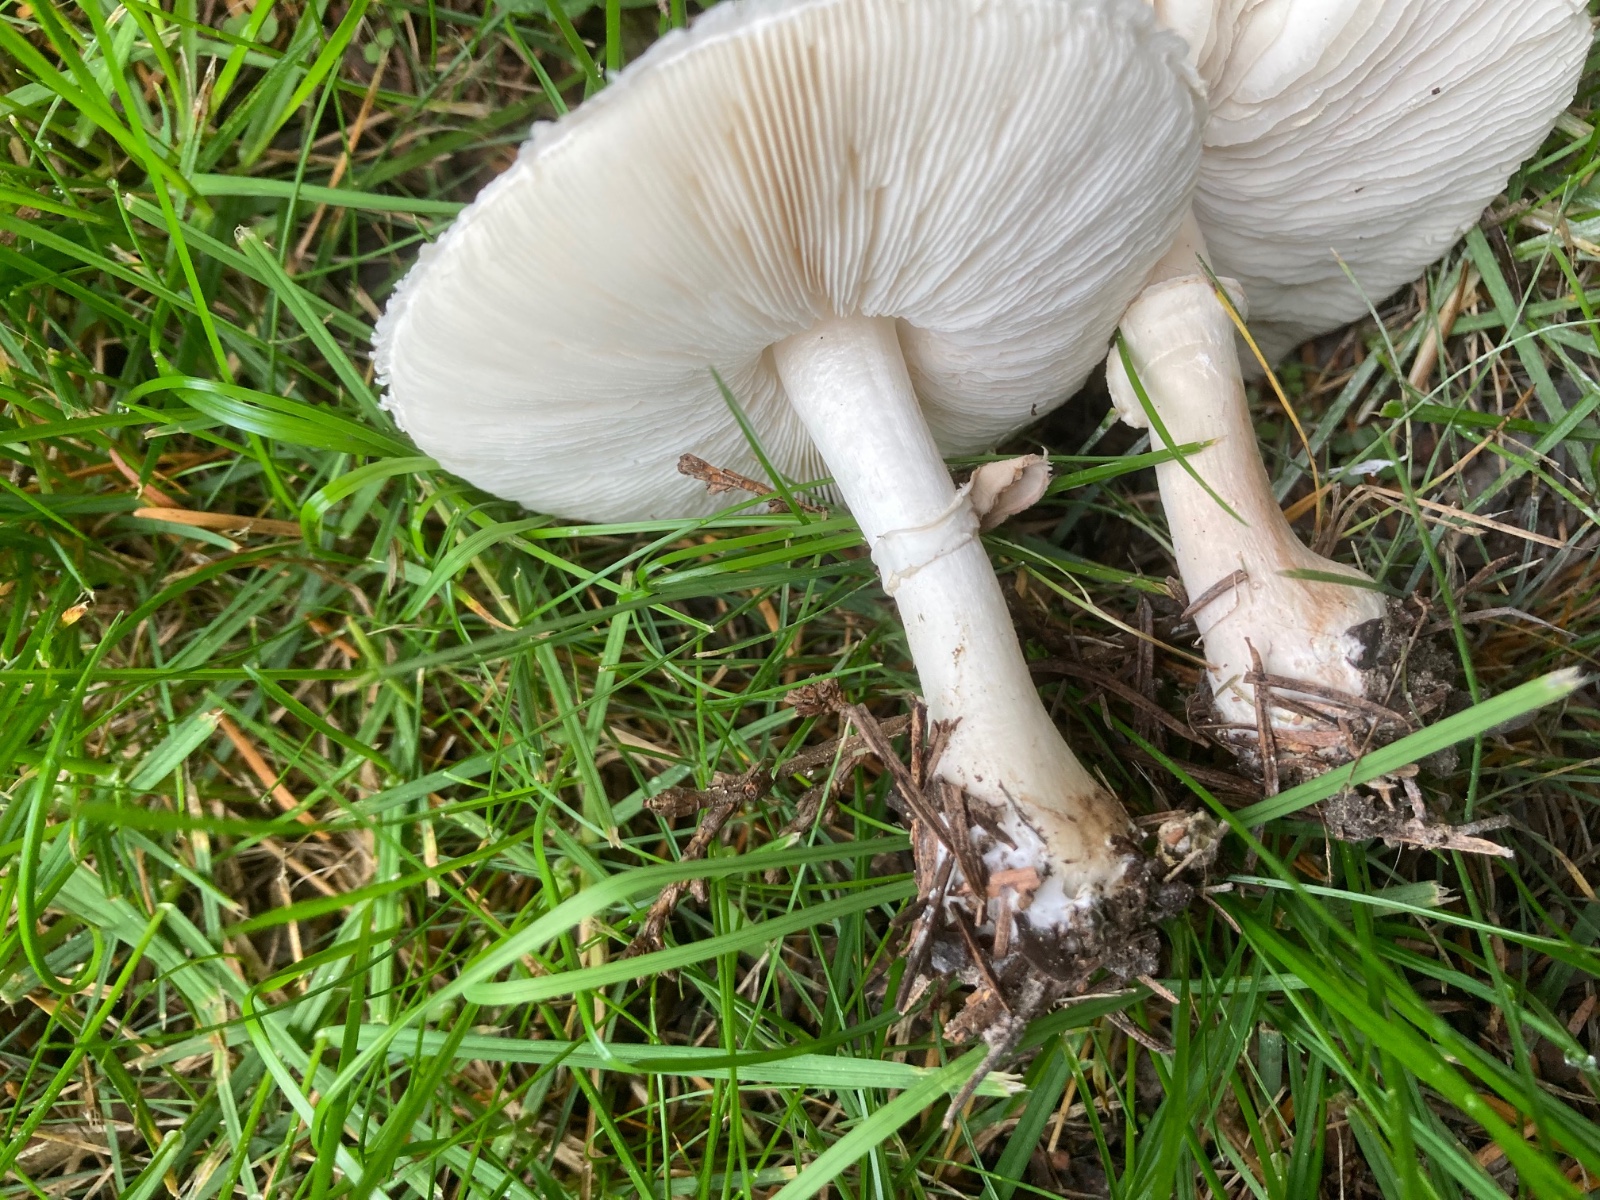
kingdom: Fungi
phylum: Basidiomycota
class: Agaricomycetes
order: Agaricales
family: Agaricaceae
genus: Leucoagaricus
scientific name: Leucoagaricus leucothites
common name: rosabladet silkehat
